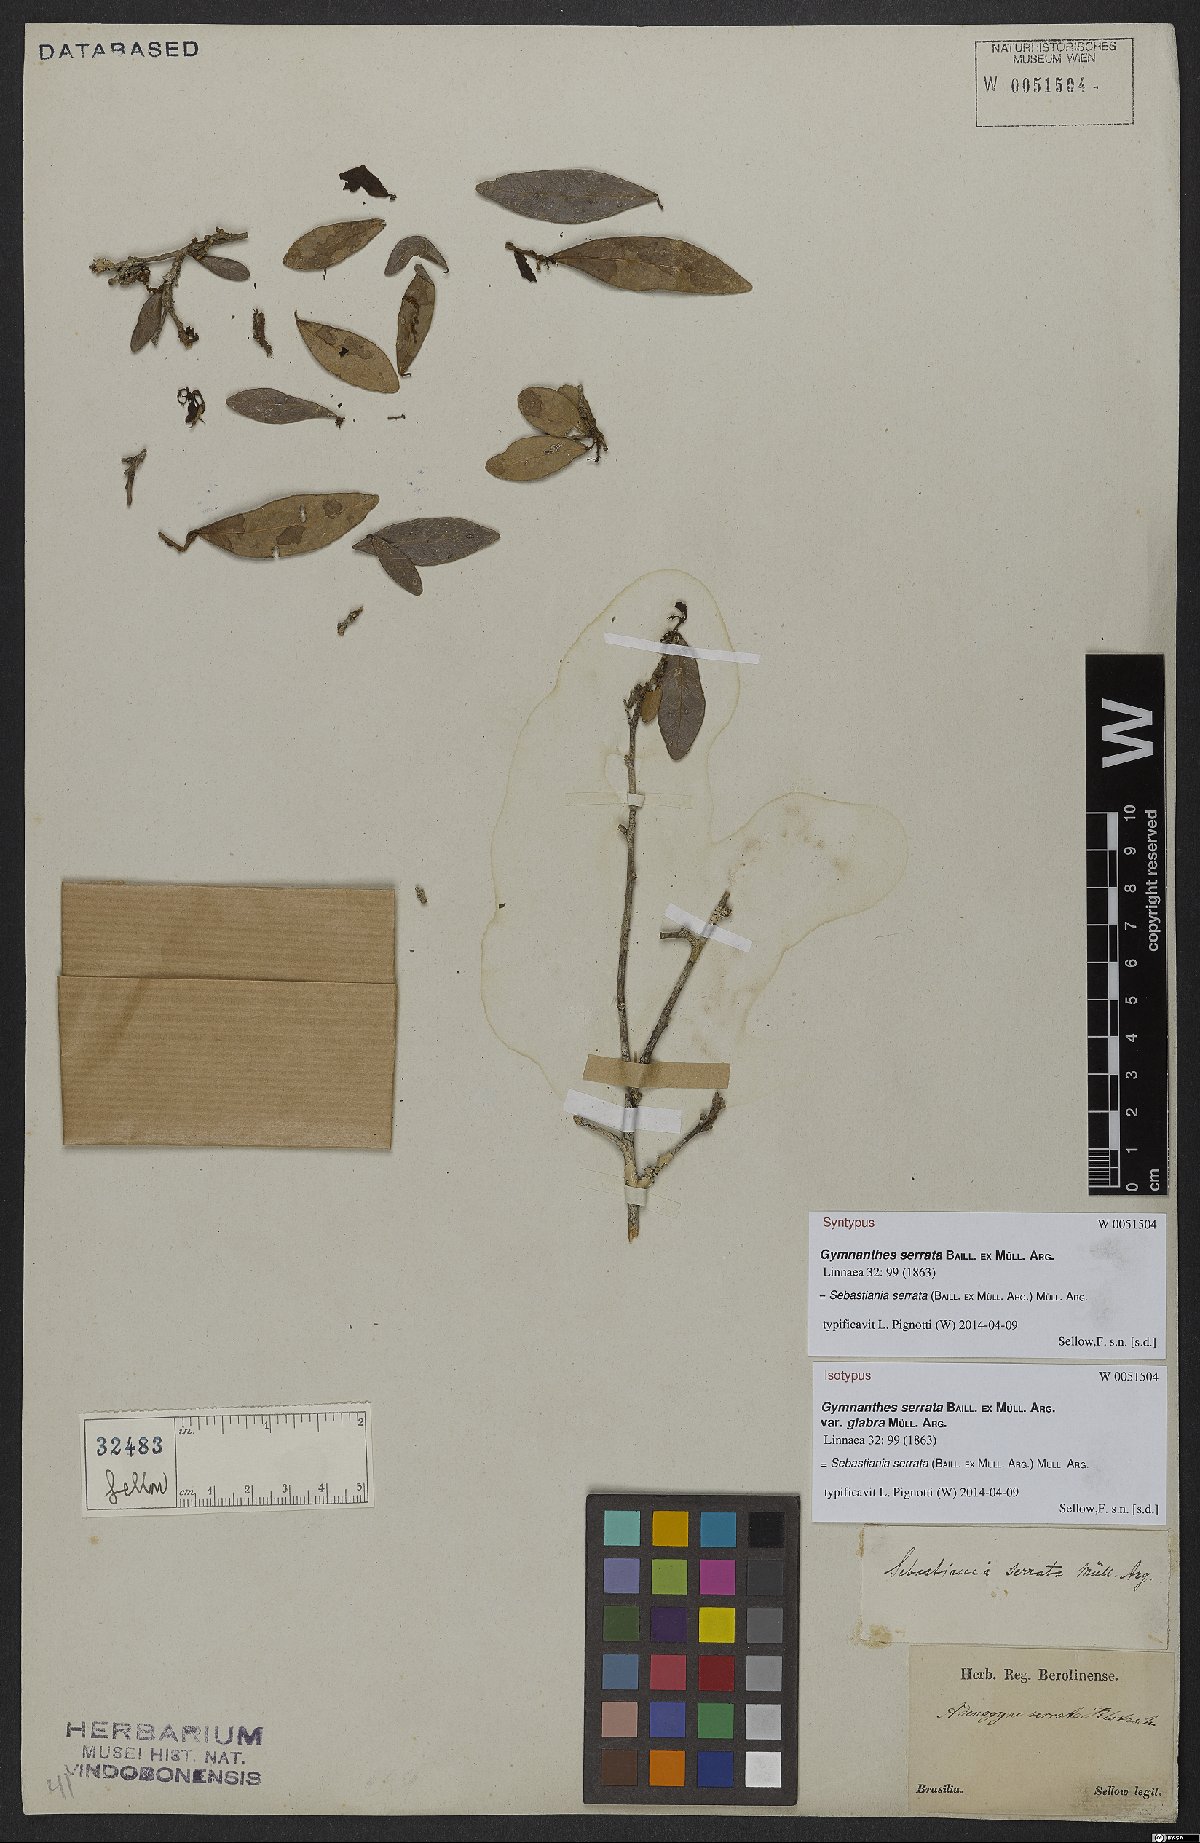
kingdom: Plantae
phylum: Tracheophyta
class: Magnoliopsida
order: Malpighiales
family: Euphorbiaceae
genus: Sebastiania
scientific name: Sebastiania serrata
